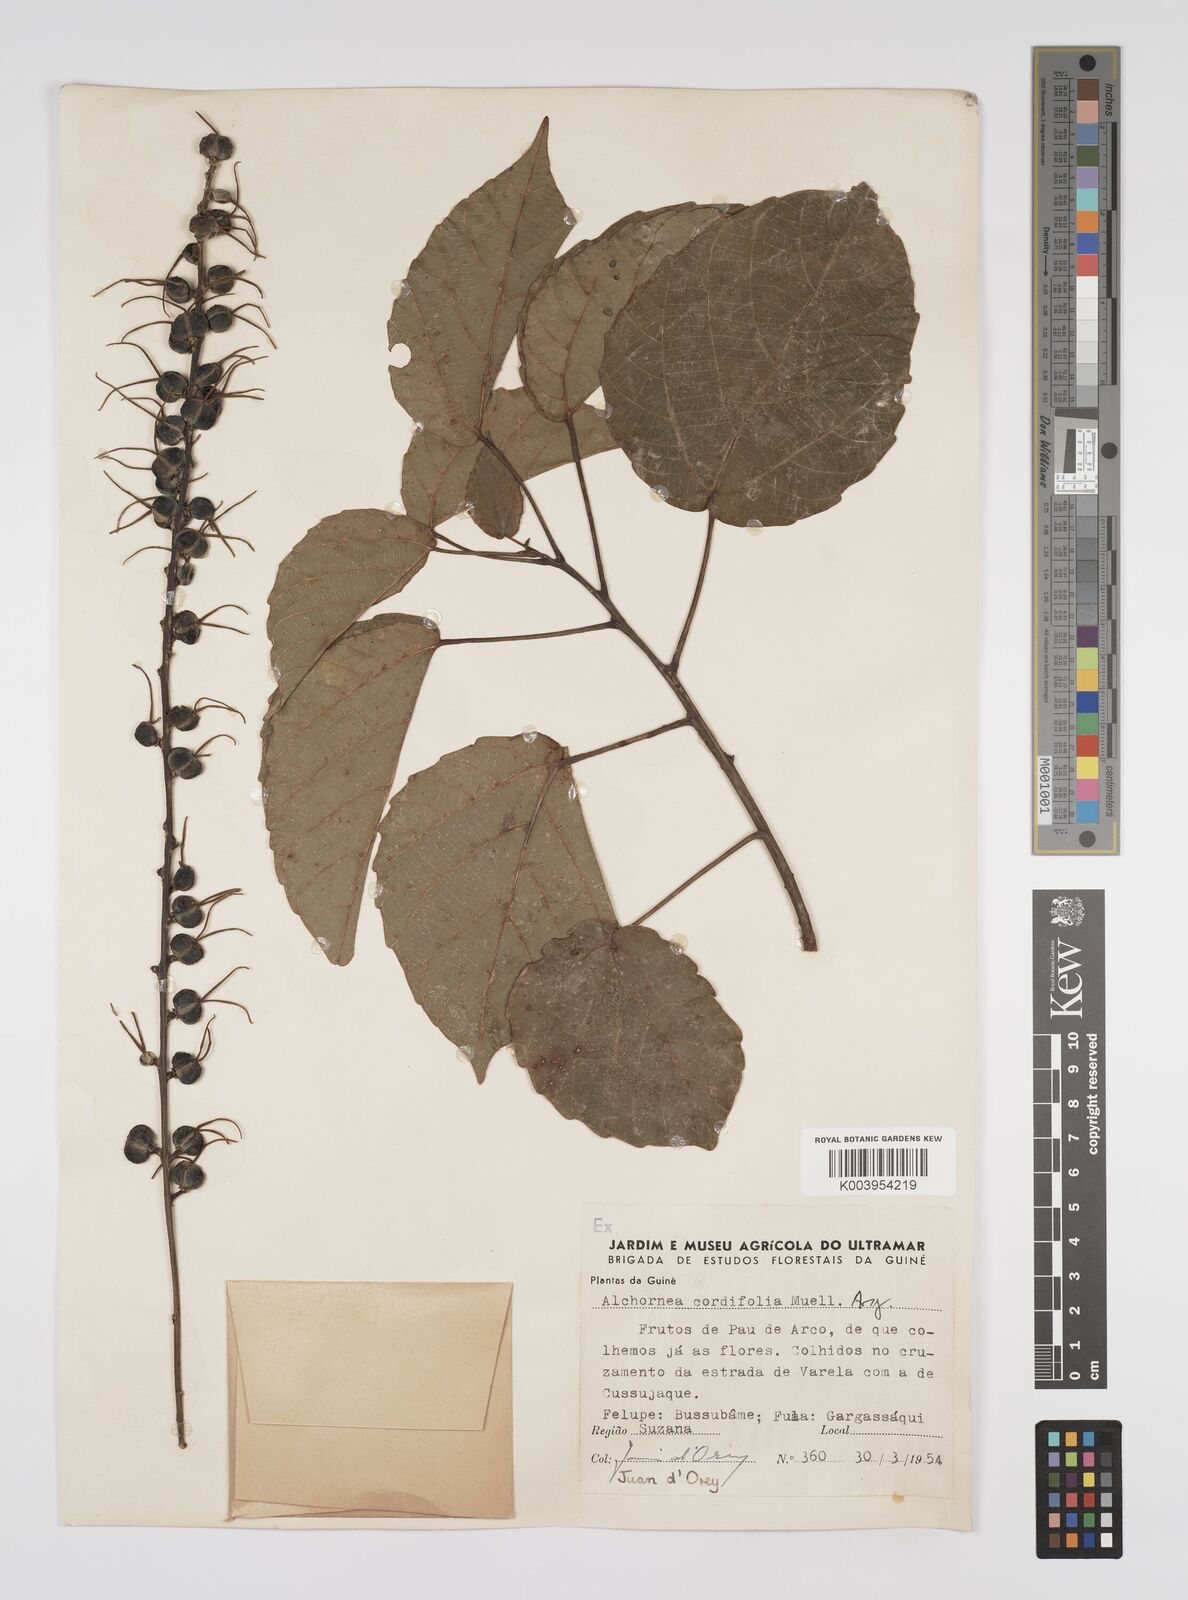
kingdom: Plantae
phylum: Tracheophyta
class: Magnoliopsida
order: Malpighiales
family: Euphorbiaceae
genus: Alchornea
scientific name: Alchornea cordifolia
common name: Christmasbush
